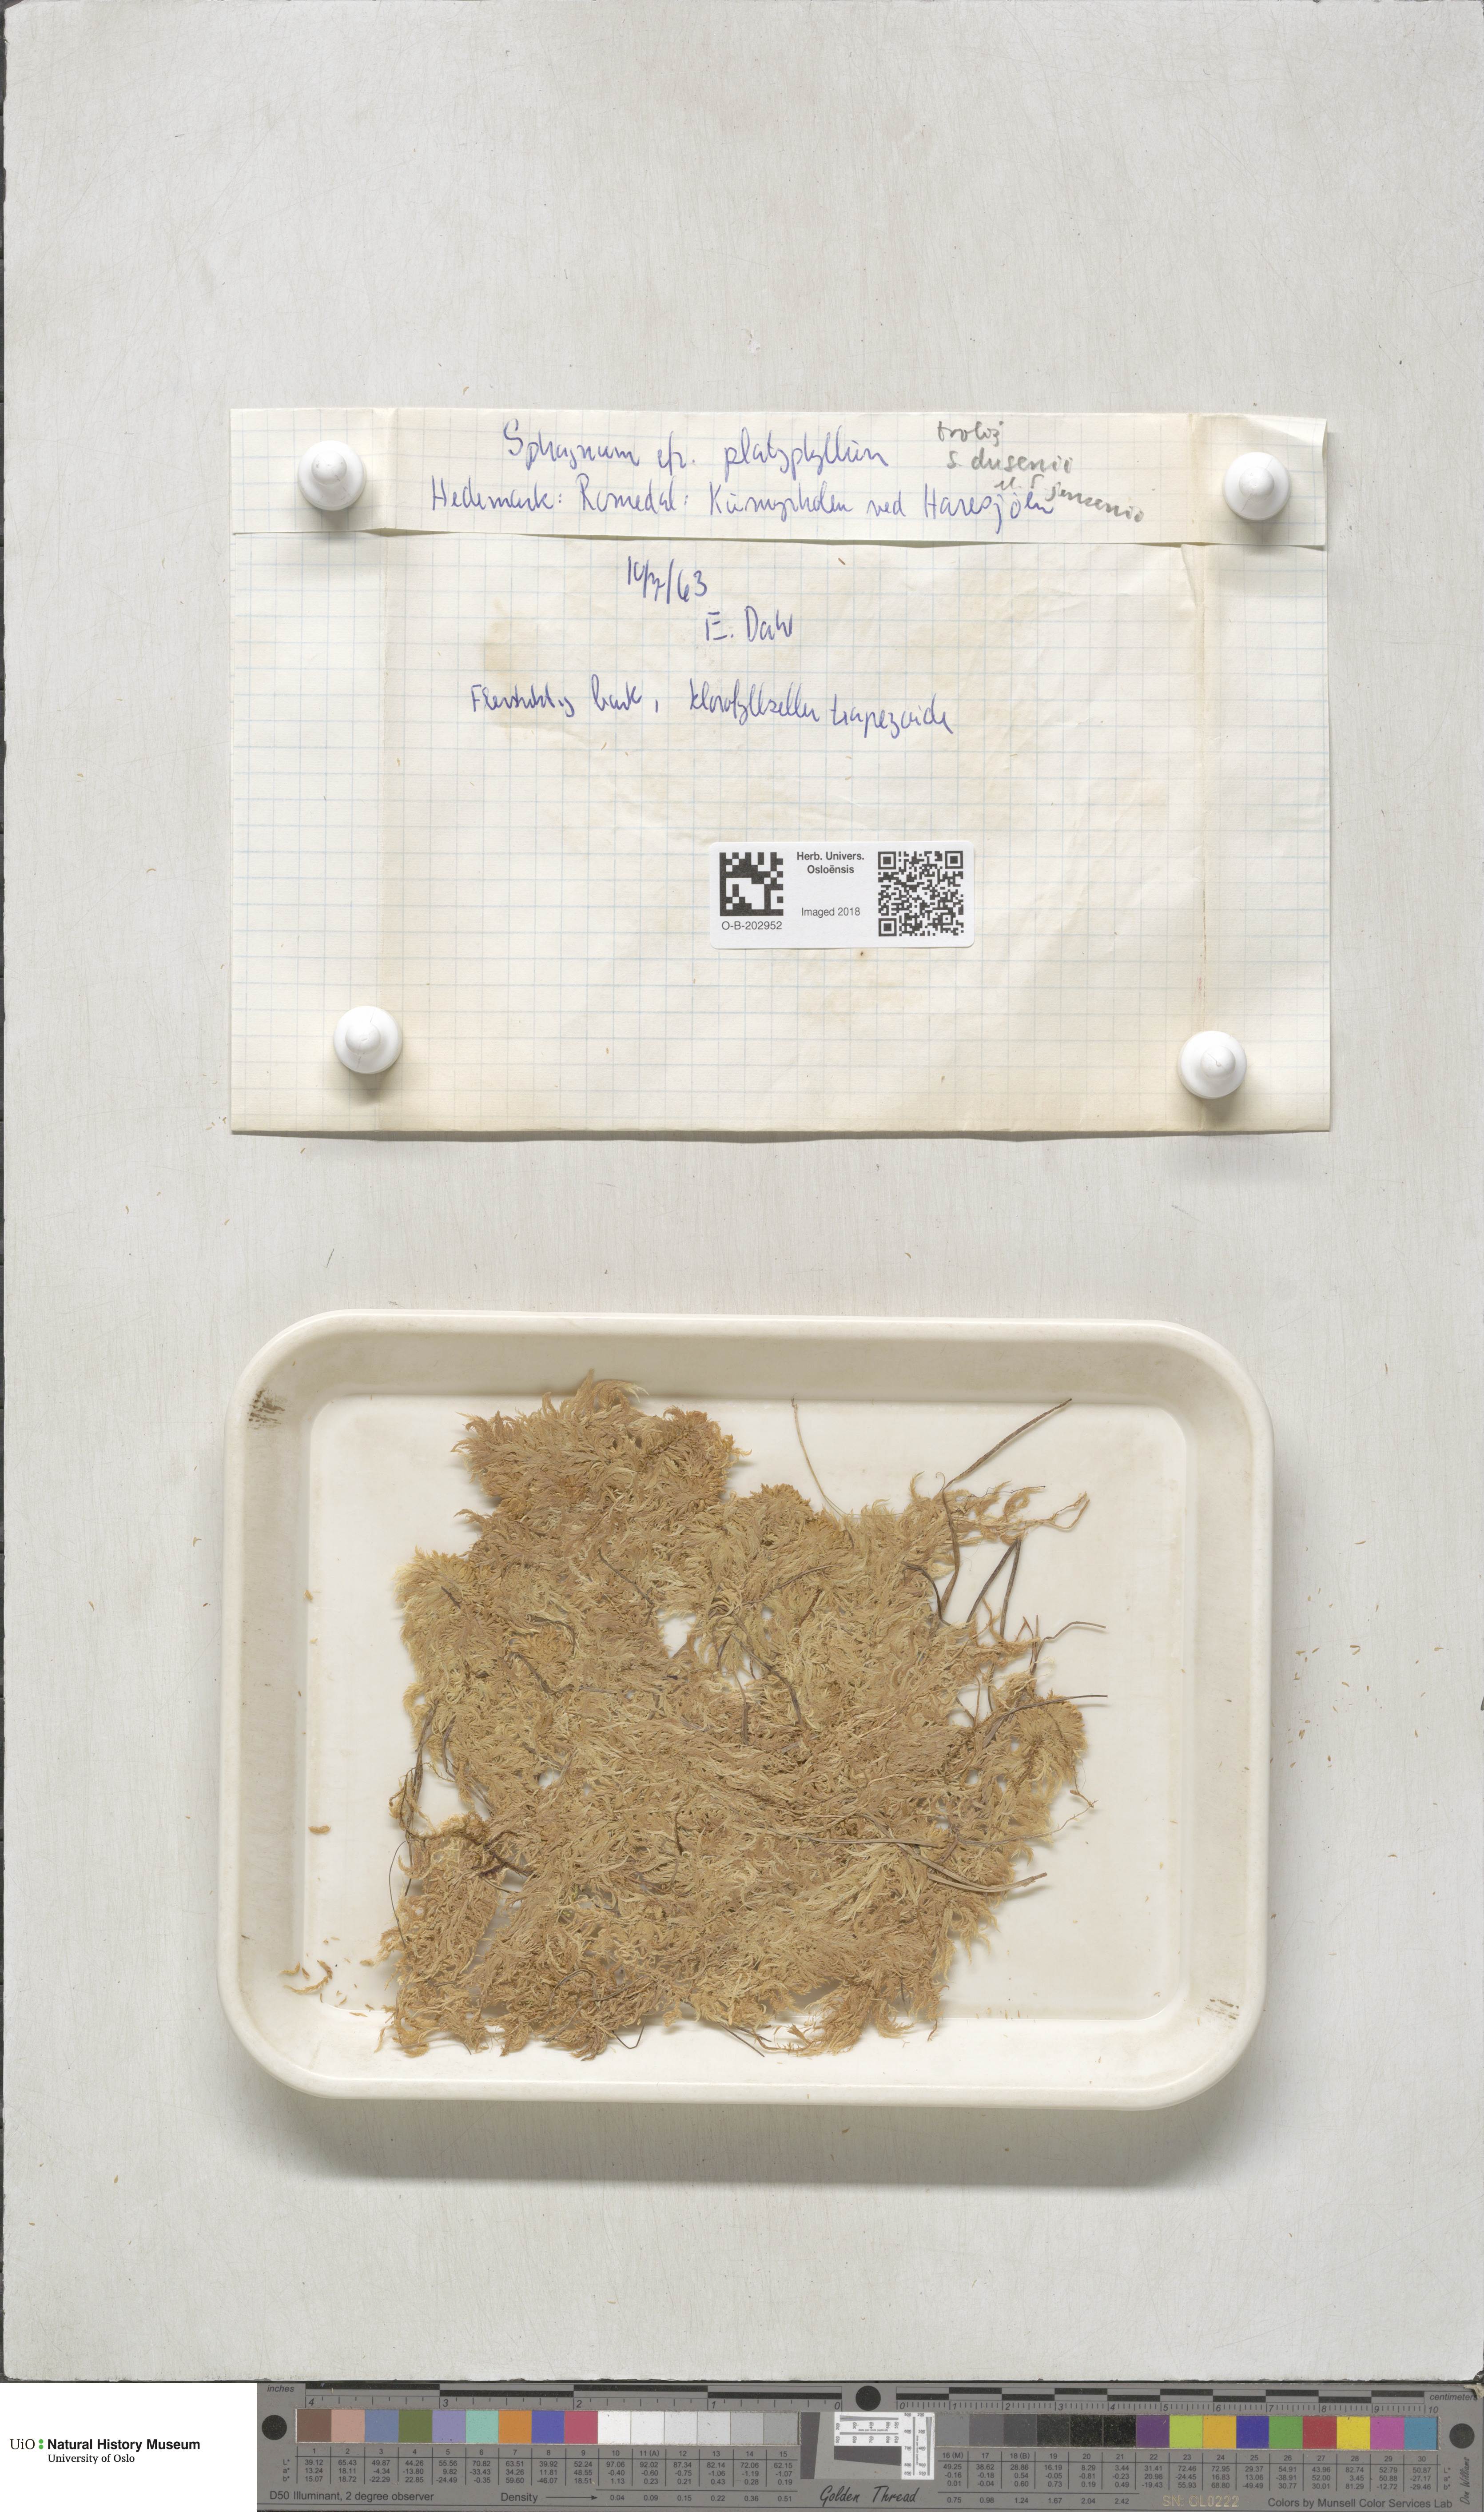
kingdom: Plantae
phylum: Bryophyta
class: Sphagnopsida
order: Sphagnales
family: Sphagnaceae
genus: Sphagnum
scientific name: Sphagnum majus
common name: Olive bog-moss
